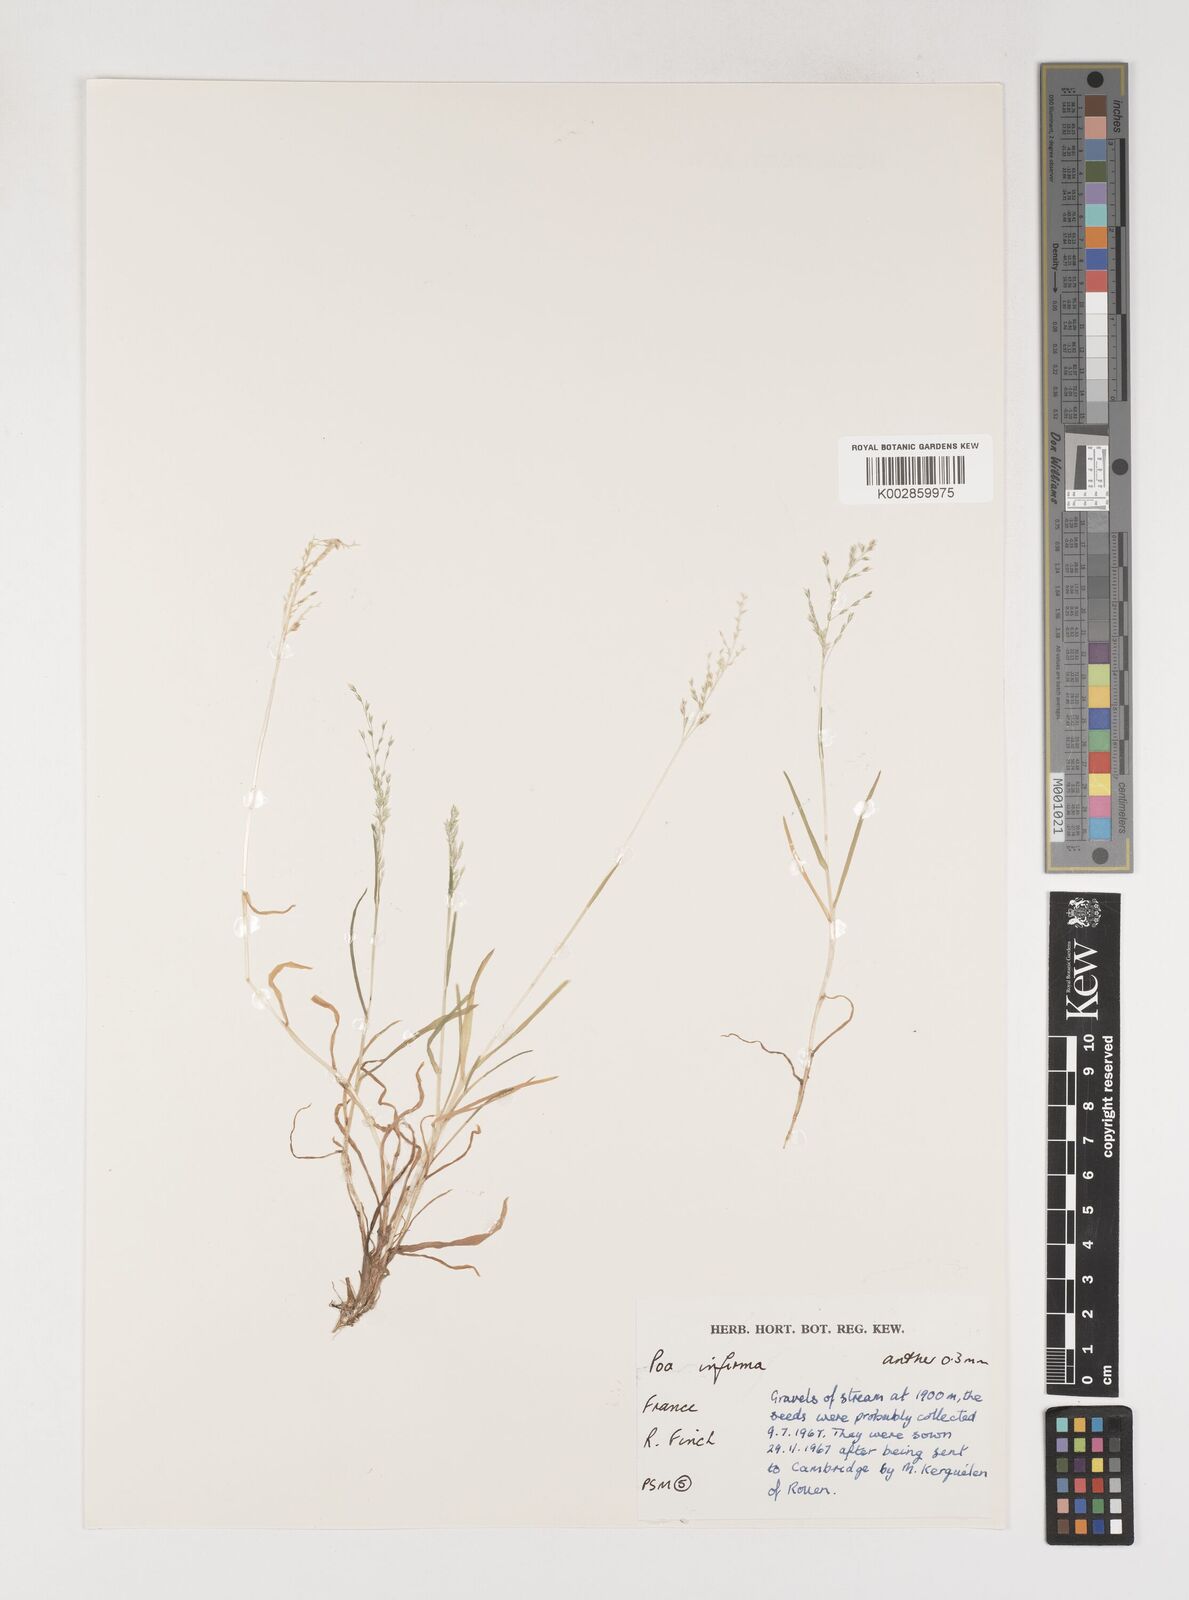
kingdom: Plantae
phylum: Tracheophyta
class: Liliopsida
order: Poales
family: Poaceae
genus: Poa
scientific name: Poa infirma
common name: Weak bluegrass
